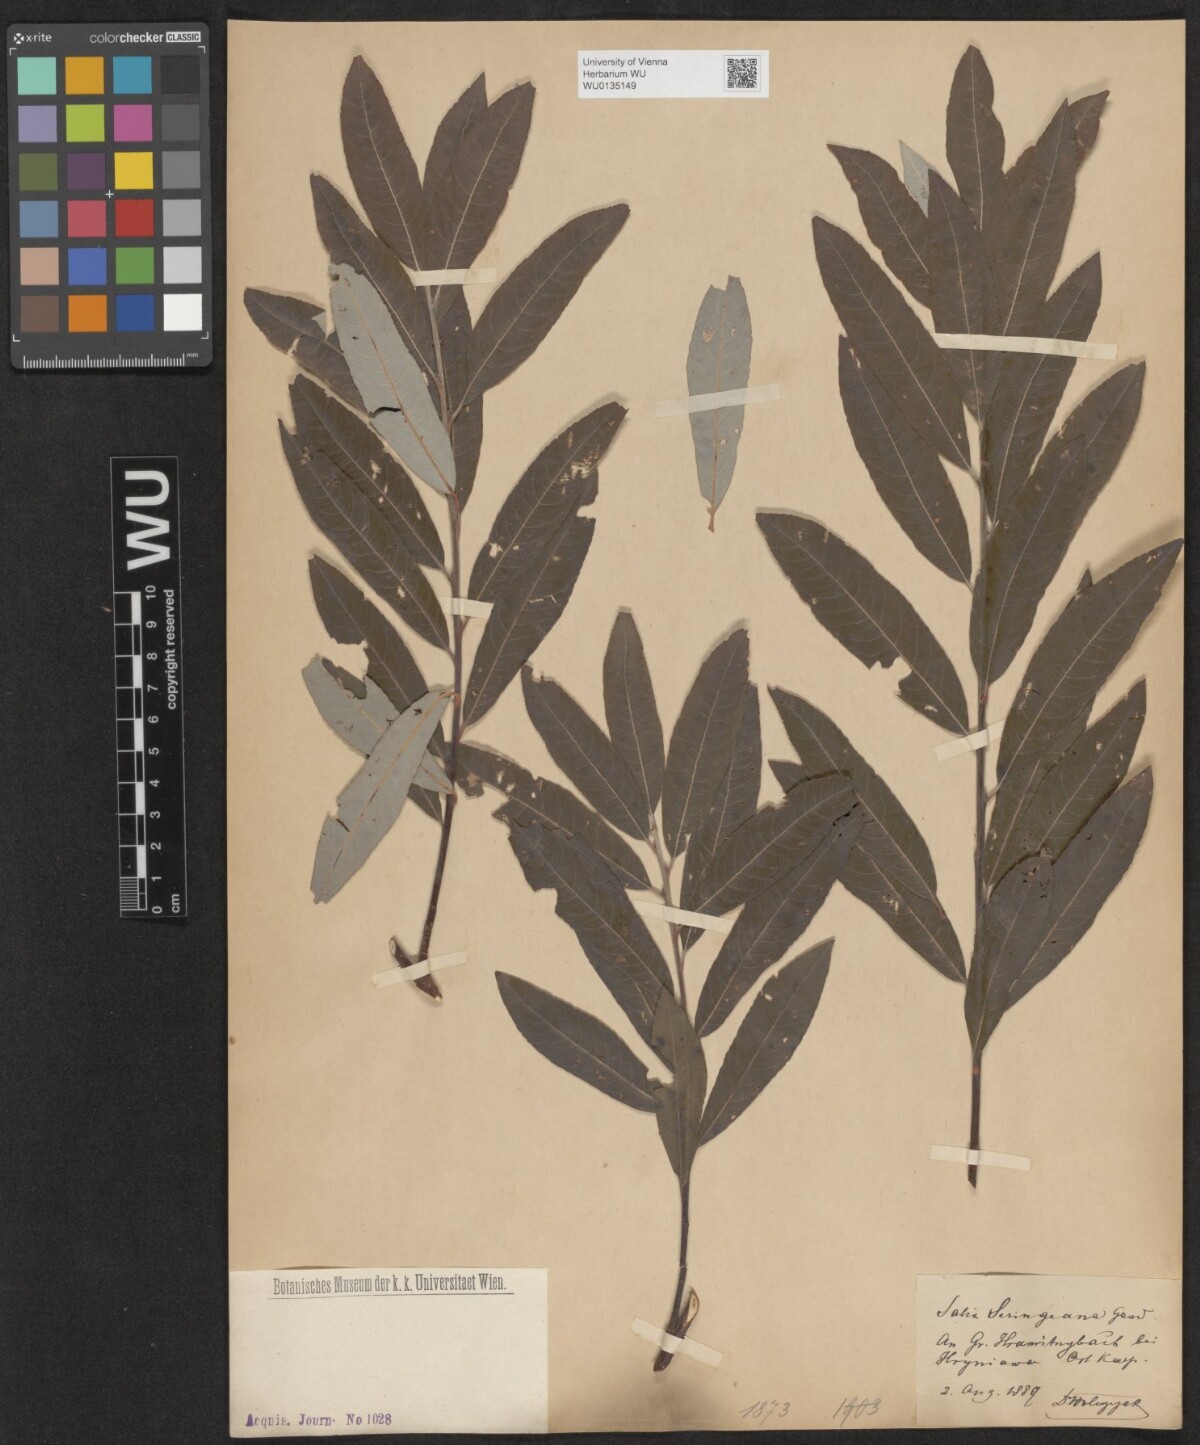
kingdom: Plantae
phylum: Tracheophyta
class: Magnoliopsida
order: Malpighiales
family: Salicaceae
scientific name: Salicaceae
